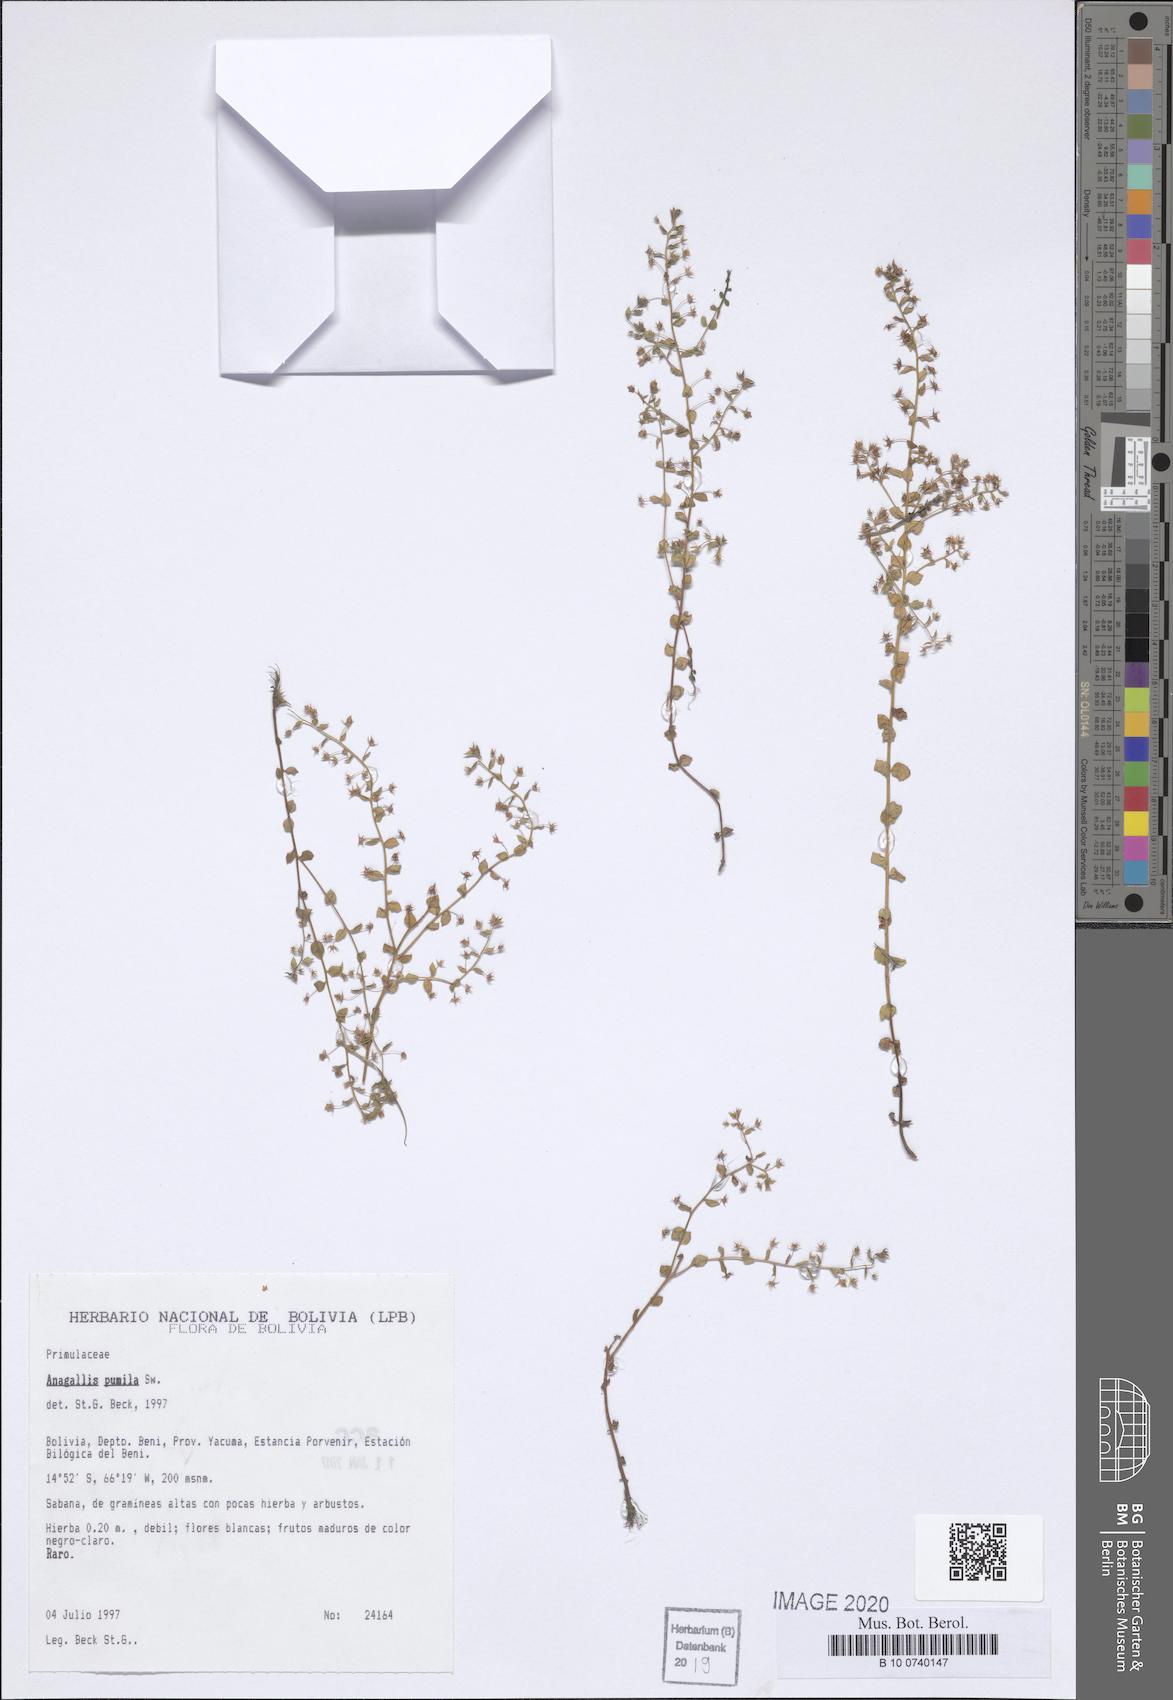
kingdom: Plantae
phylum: Tracheophyta
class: Magnoliopsida
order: Ericales
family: Primulaceae
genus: Lysimachia
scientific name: Lysimachia ovalis
